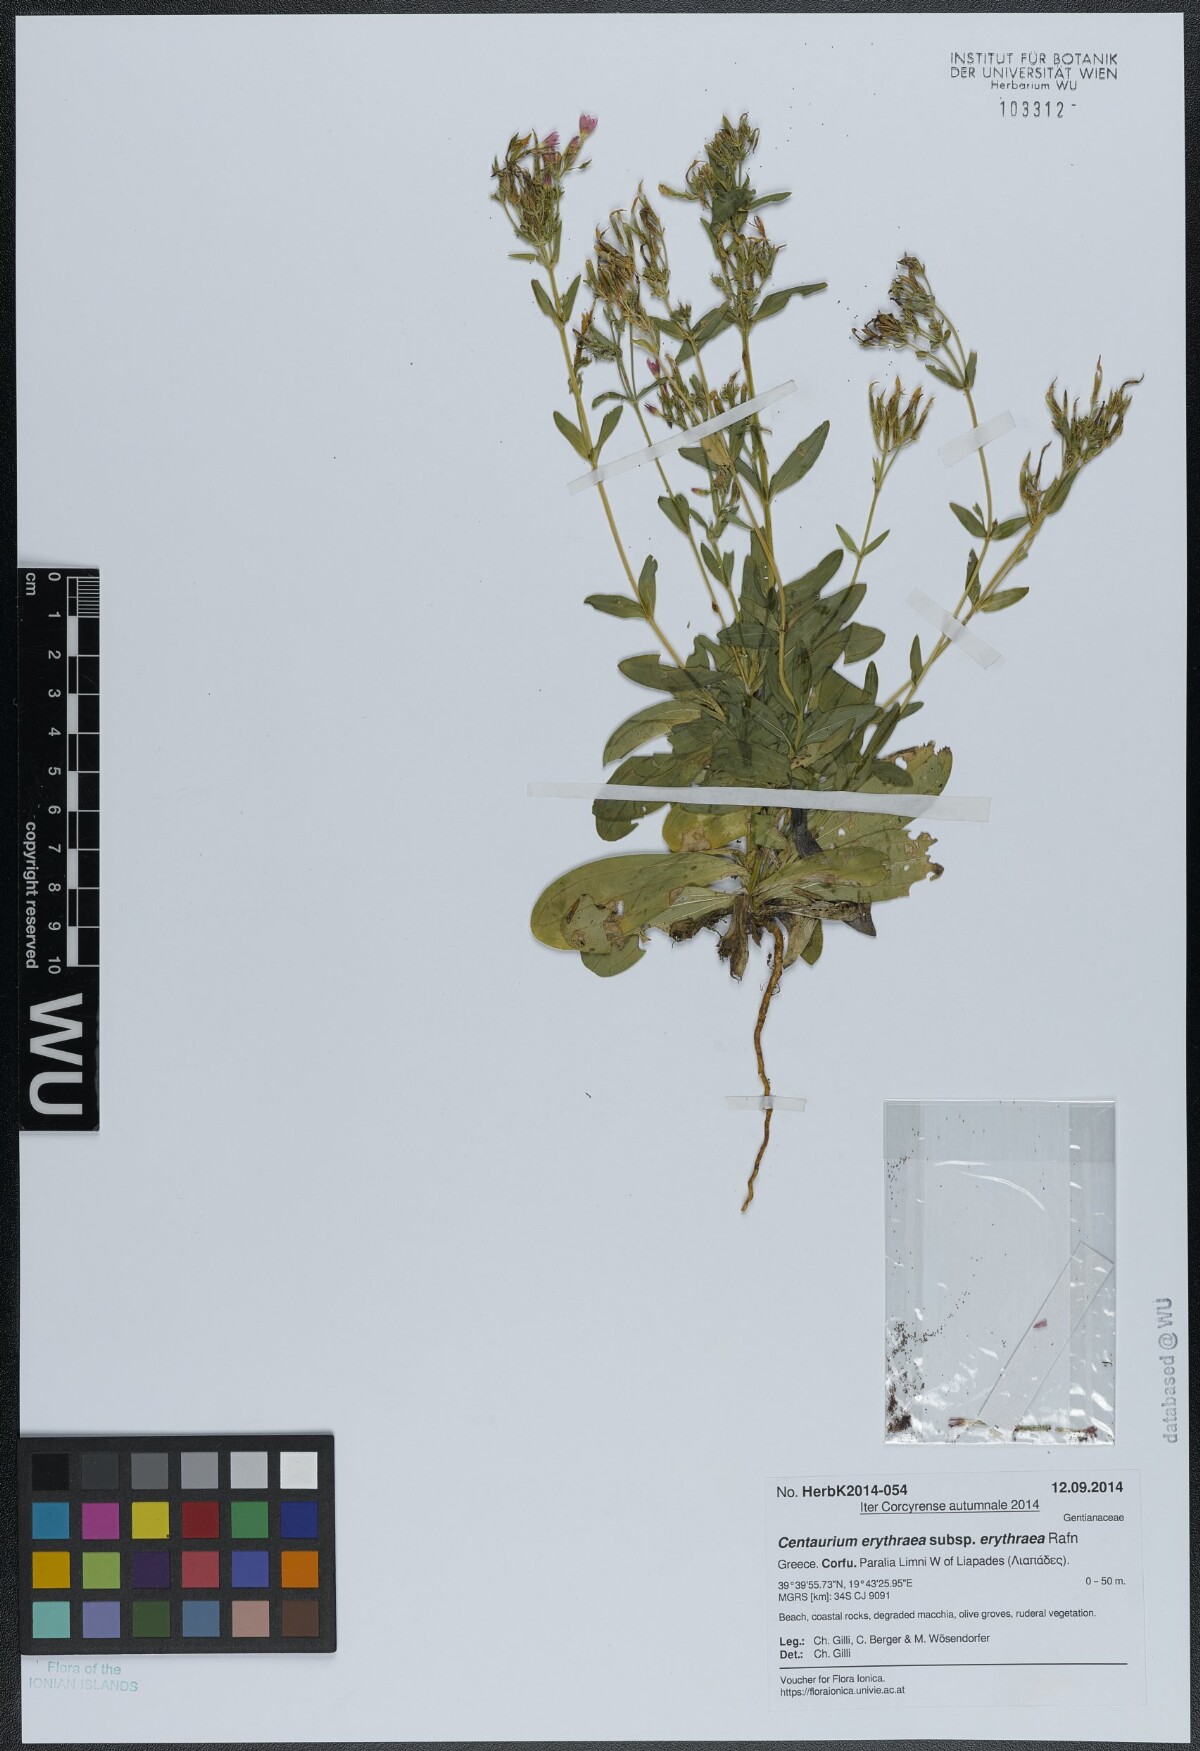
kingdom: Plantae
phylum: Tracheophyta
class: Magnoliopsida
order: Gentianales
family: Gentianaceae
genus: Centaurium
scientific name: Centaurium erythraea
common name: Common centaury
